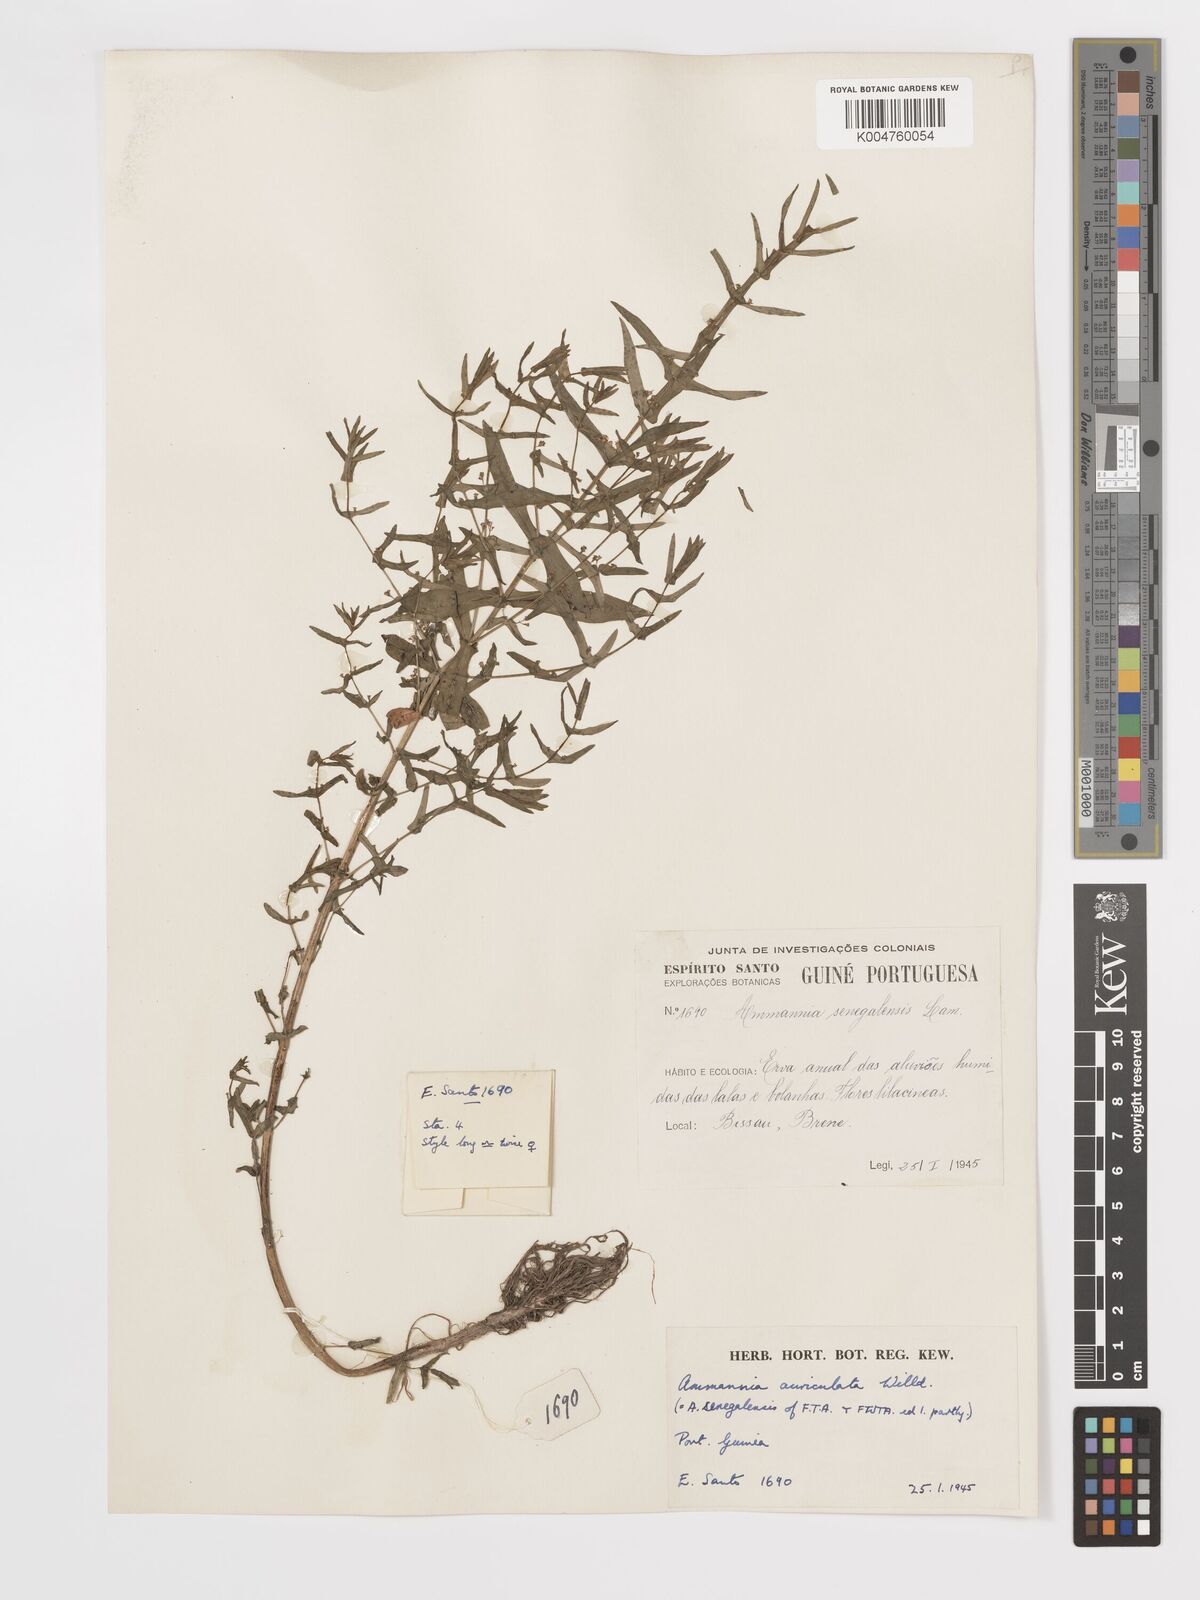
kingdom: Plantae
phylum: Tracheophyta
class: Magnoliopsida
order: Myrtales
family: Lythraceae
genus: Ammannia
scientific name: Ammannia auriculata
